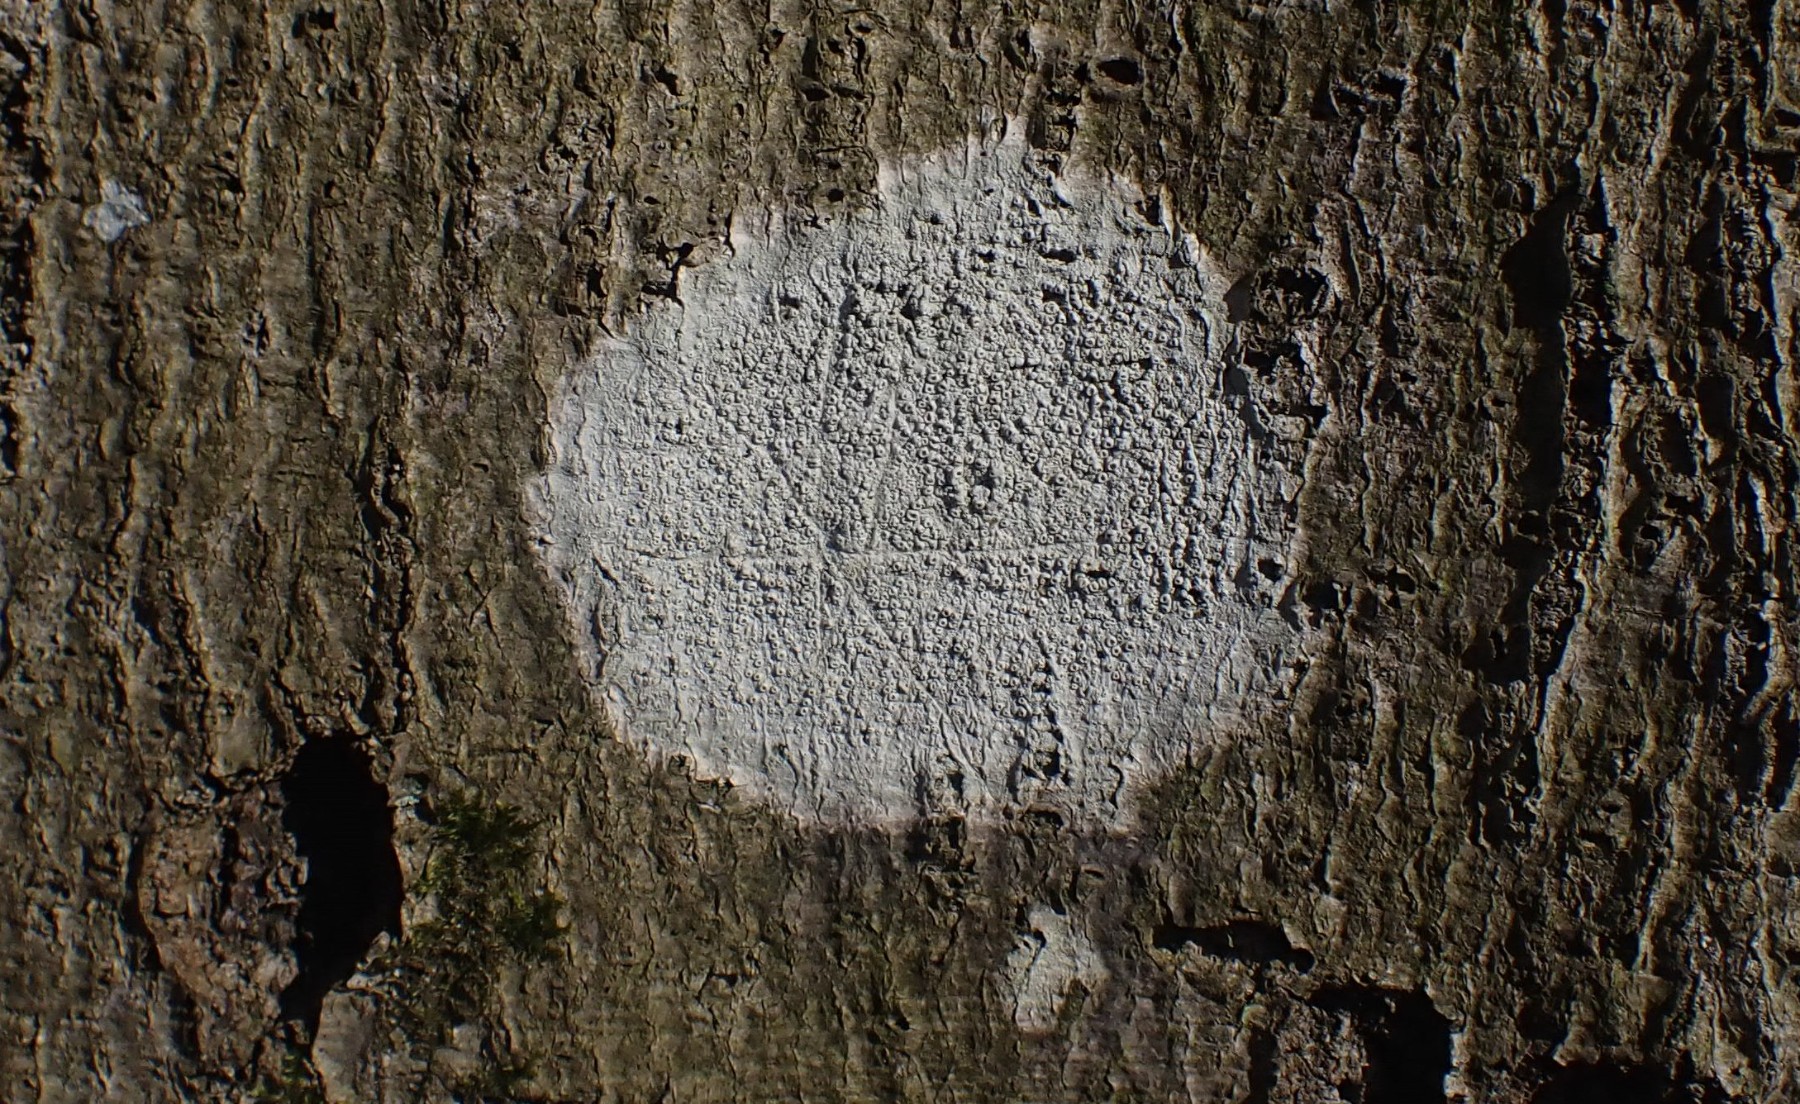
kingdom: Fungi
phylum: Ascomycota
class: Lecanoromycetes
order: Ostropales
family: Graphidaceae
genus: Thelotrema
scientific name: Thelotrema lepadinum
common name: almindelig slørkantlav
